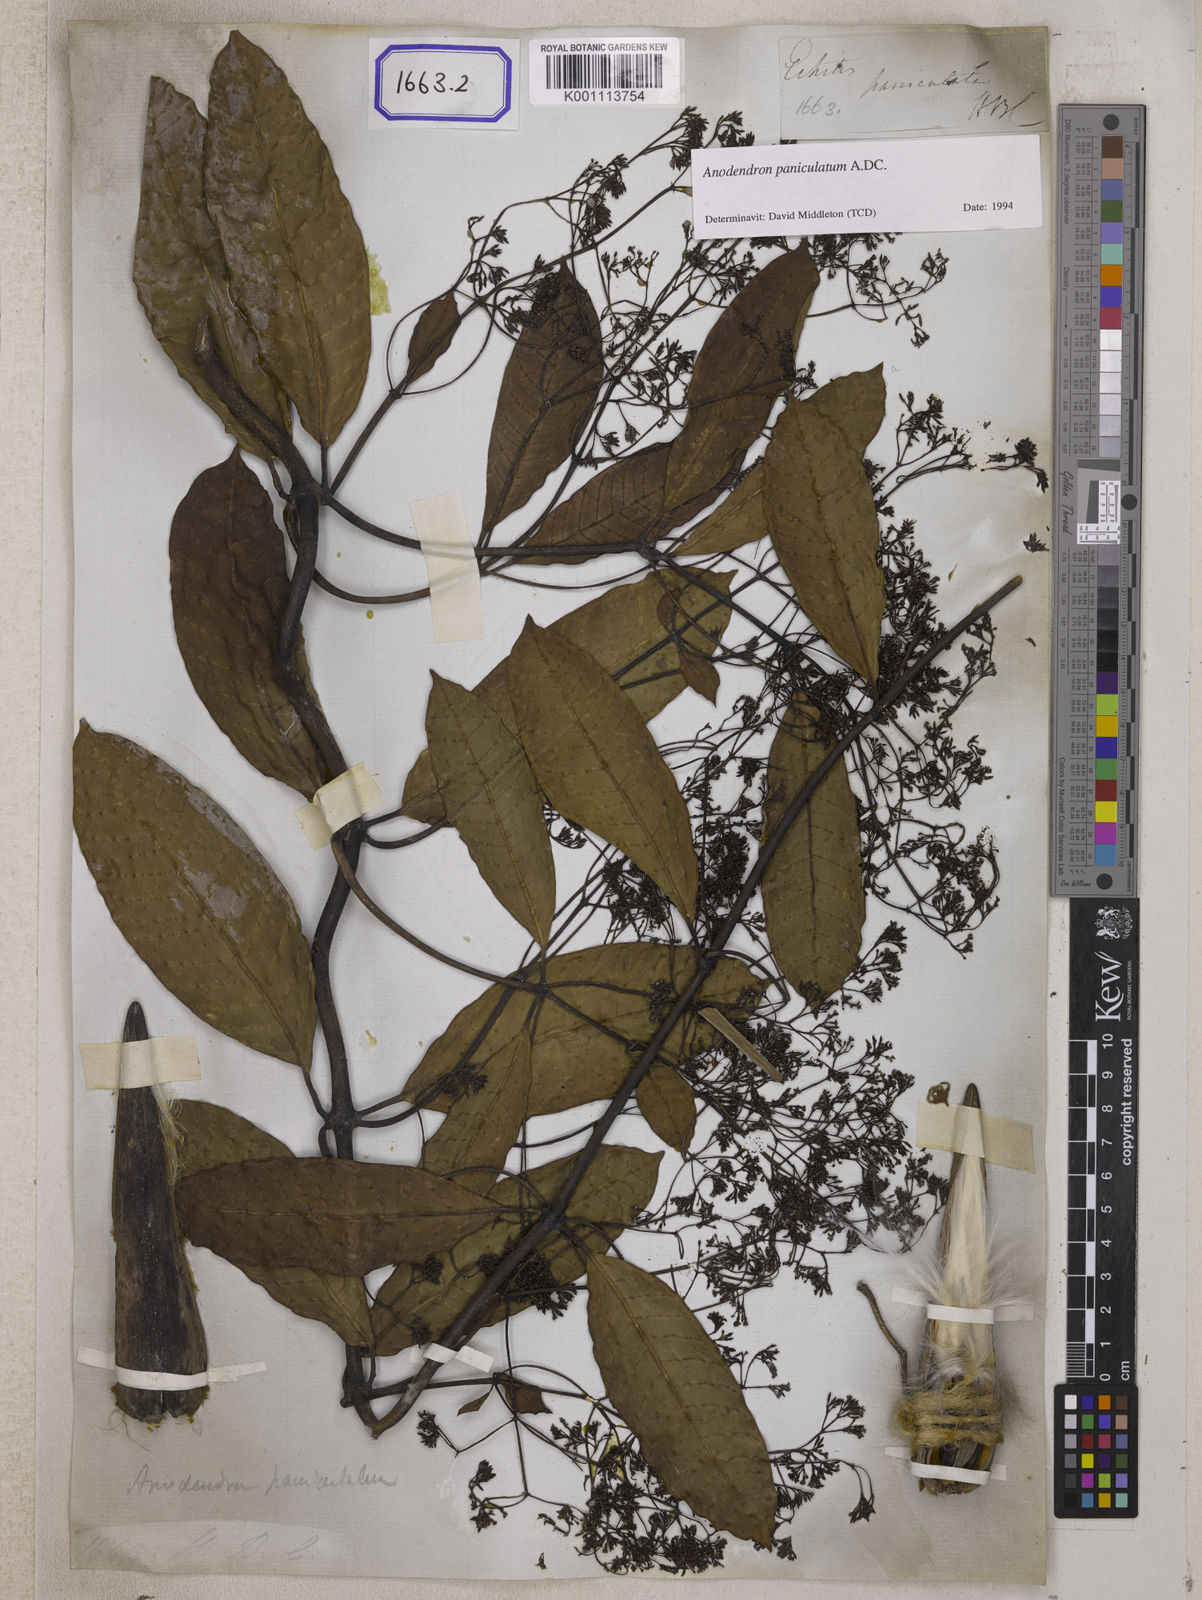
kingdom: Plantae
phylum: Tracheophyta
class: Magnoliopsida
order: Gentianales
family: Apocynaceae
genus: Echites
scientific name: Echites
